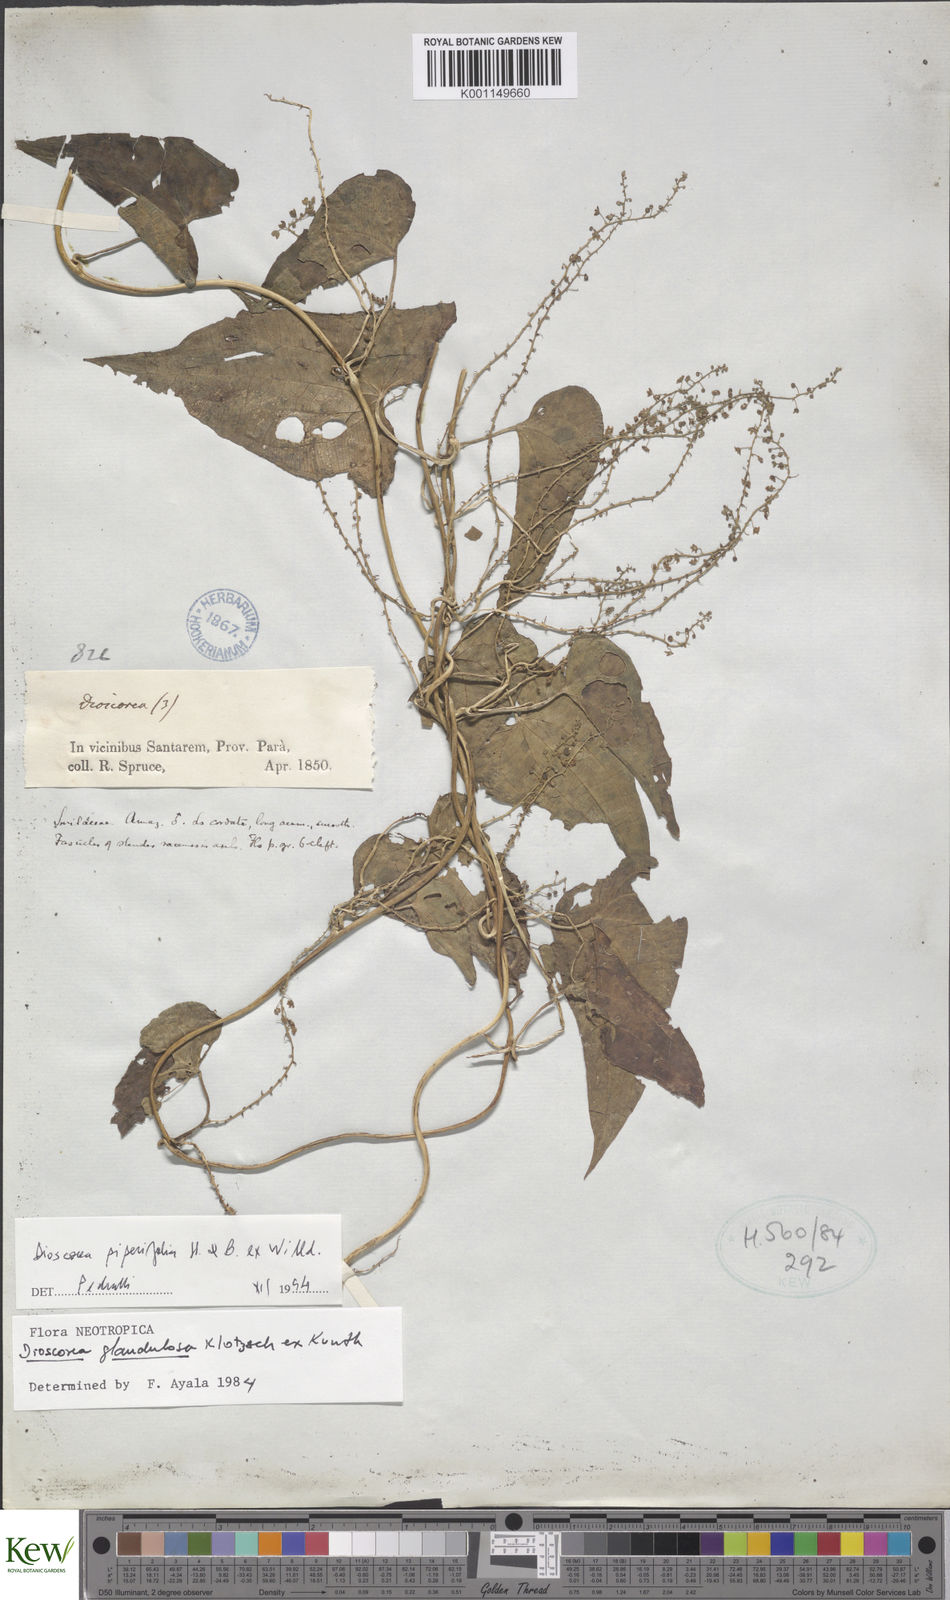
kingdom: Plantae
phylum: Tracheophyta
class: Liliopsida
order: Dioscoreales
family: Dioscoreaceae
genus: Dioscorea
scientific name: Dioscorea glandulosa
